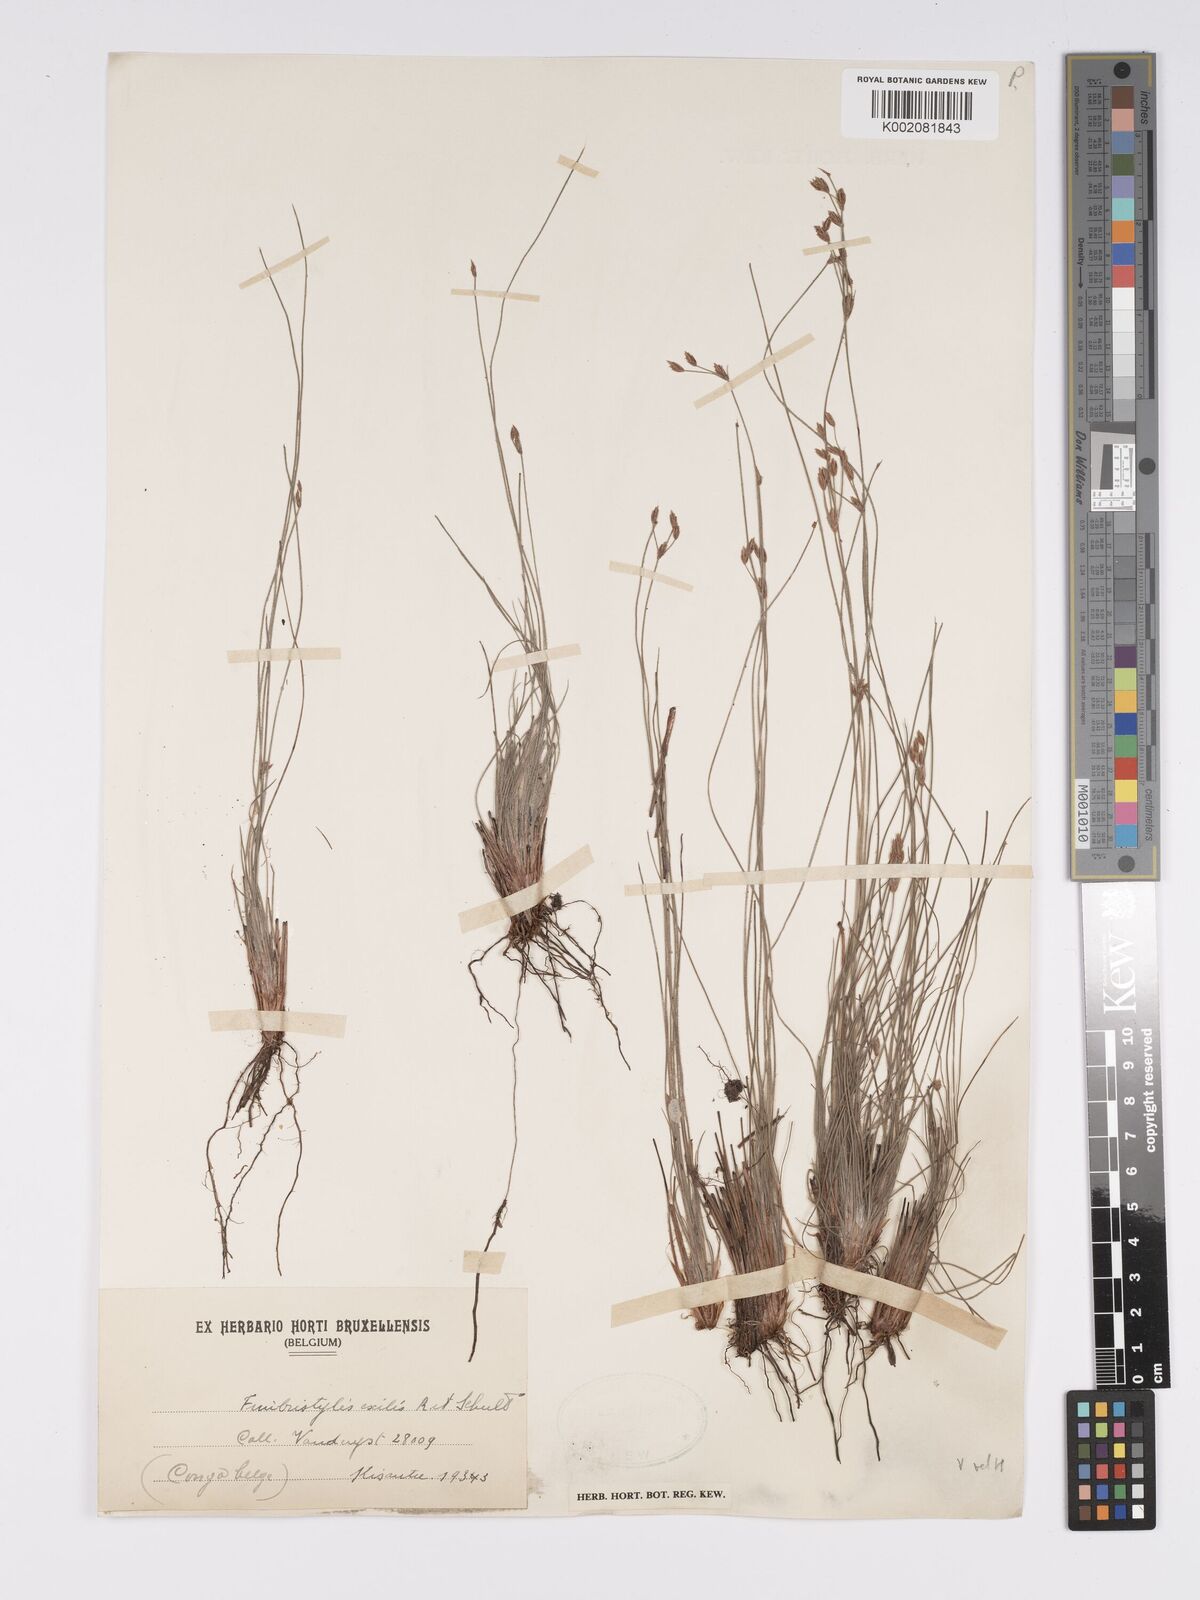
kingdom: Plantae
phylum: Tracheophyta
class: Liliopsida
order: Poales
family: Cyperaceae
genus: Bulbostylis
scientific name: Bulbostylis hispidula
